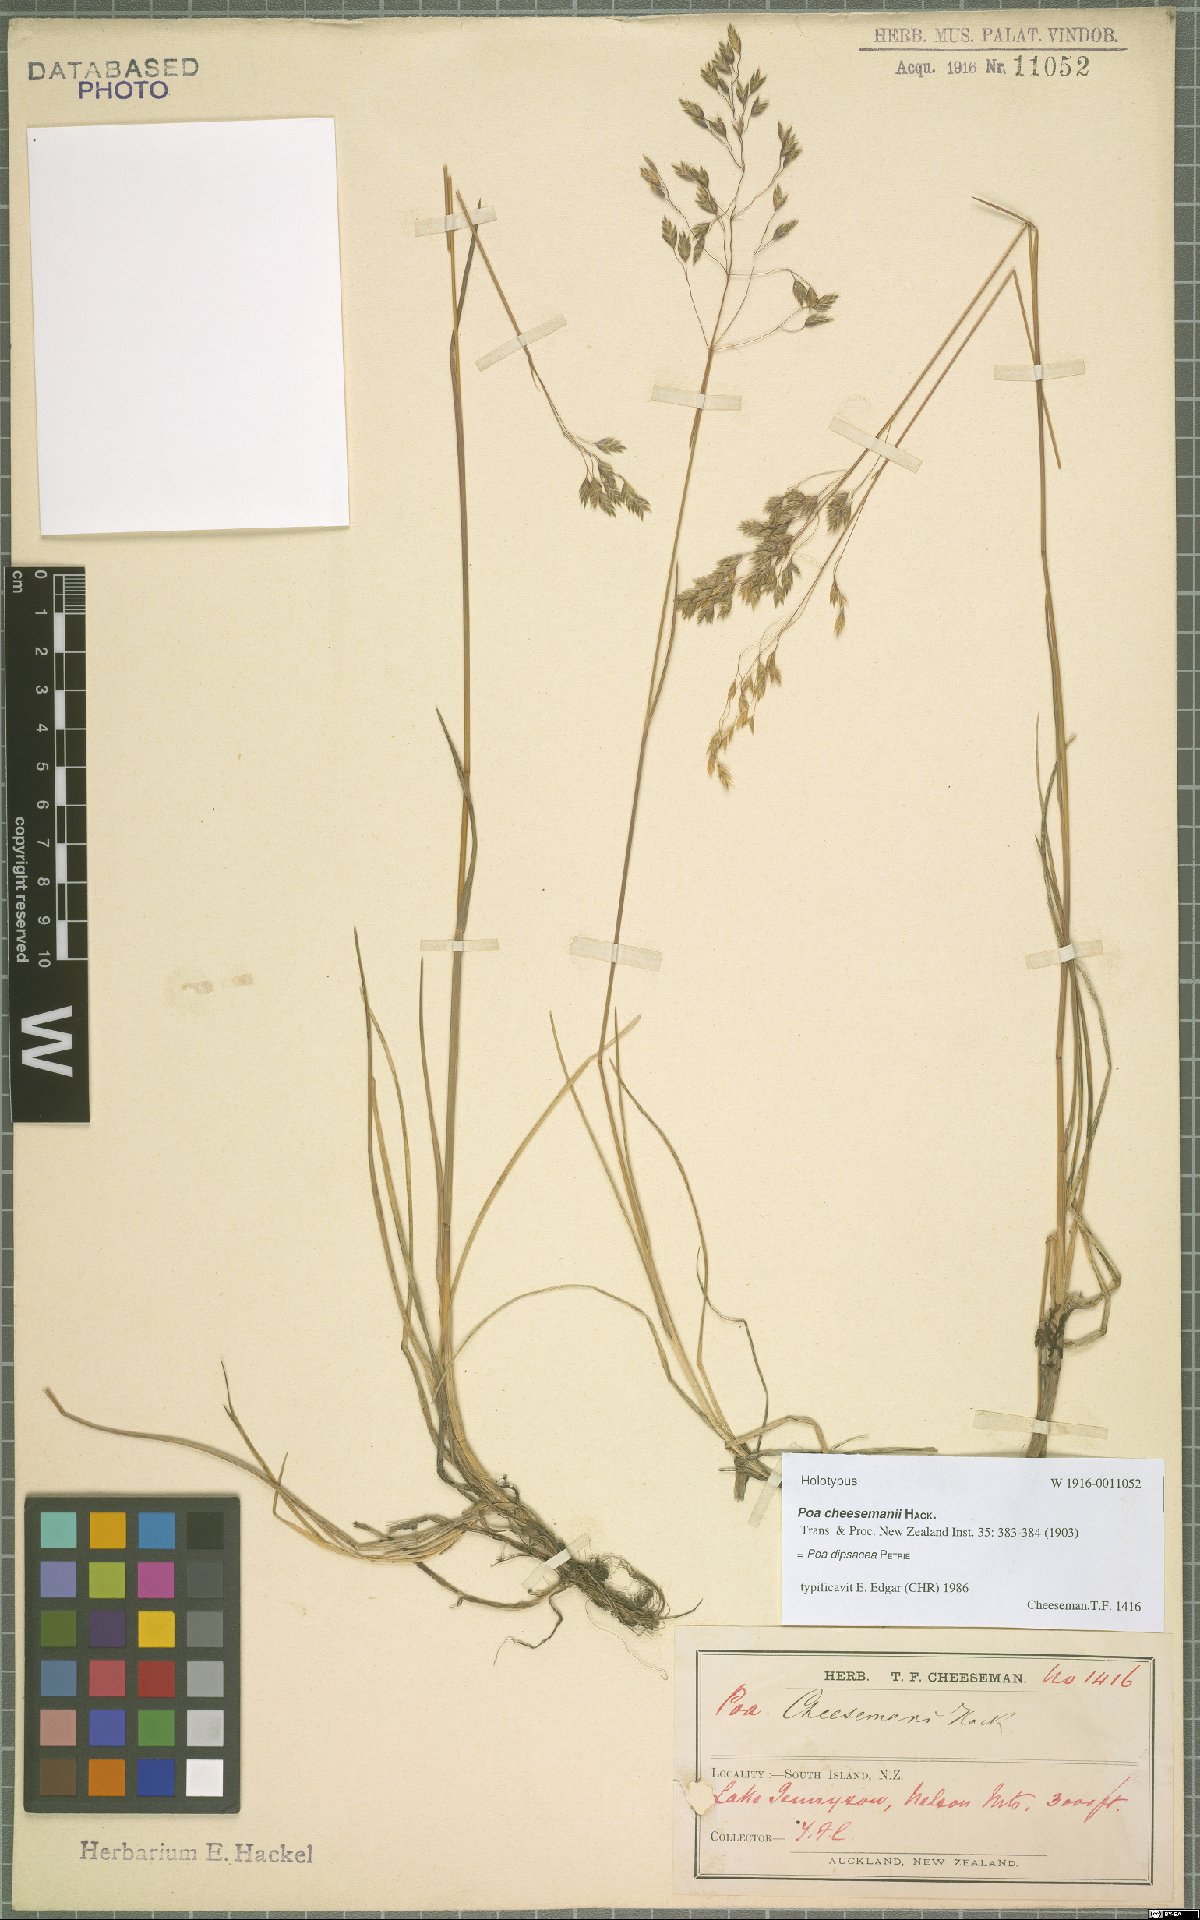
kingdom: Plantae
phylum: Tracheophyta
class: Liliopsida
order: Poales
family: Poaceae
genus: Poa
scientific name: Poa dipsacea
